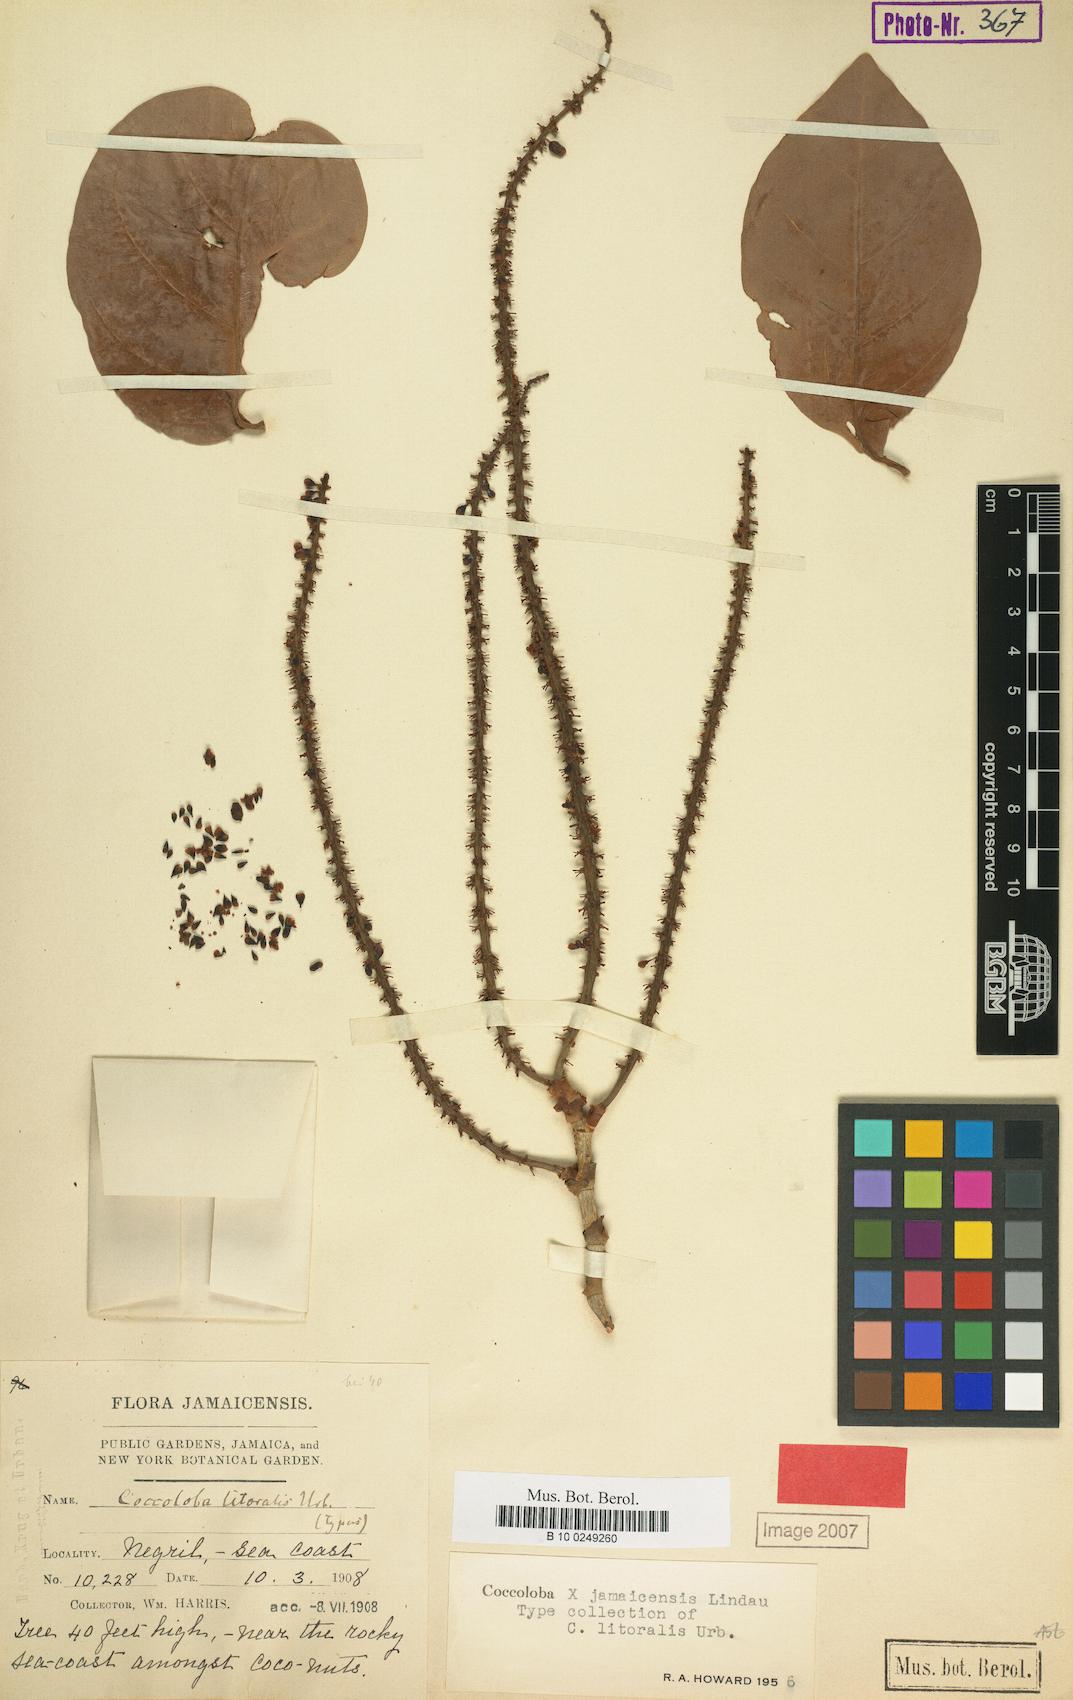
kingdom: Plantae
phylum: Tracheophyta
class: Magnoliopsida
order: Caryophyllales
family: Polygonaceae
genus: Coccoloba
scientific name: Coccoloba jamaicensis
